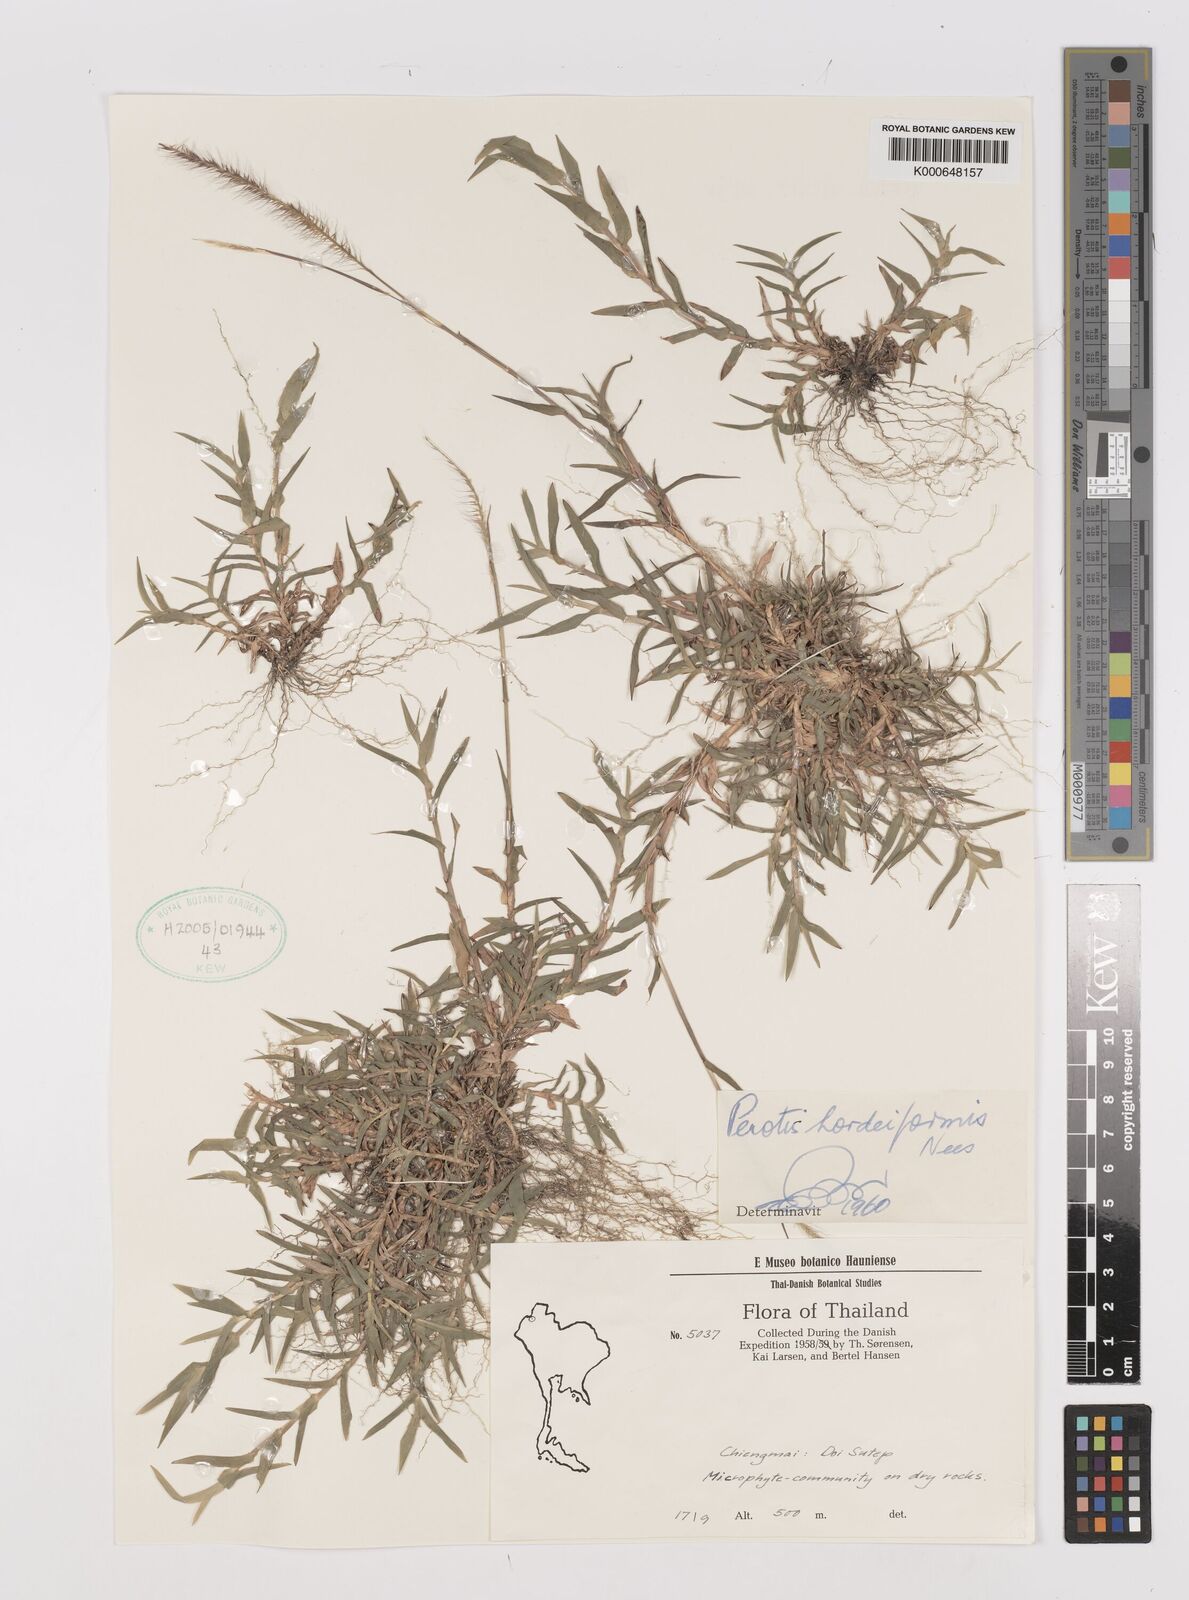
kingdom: Plantae
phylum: Tracheophyta
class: Liliopsida
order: Poales
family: Poaceae
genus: Perotis
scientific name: Perotis hordeiformis
